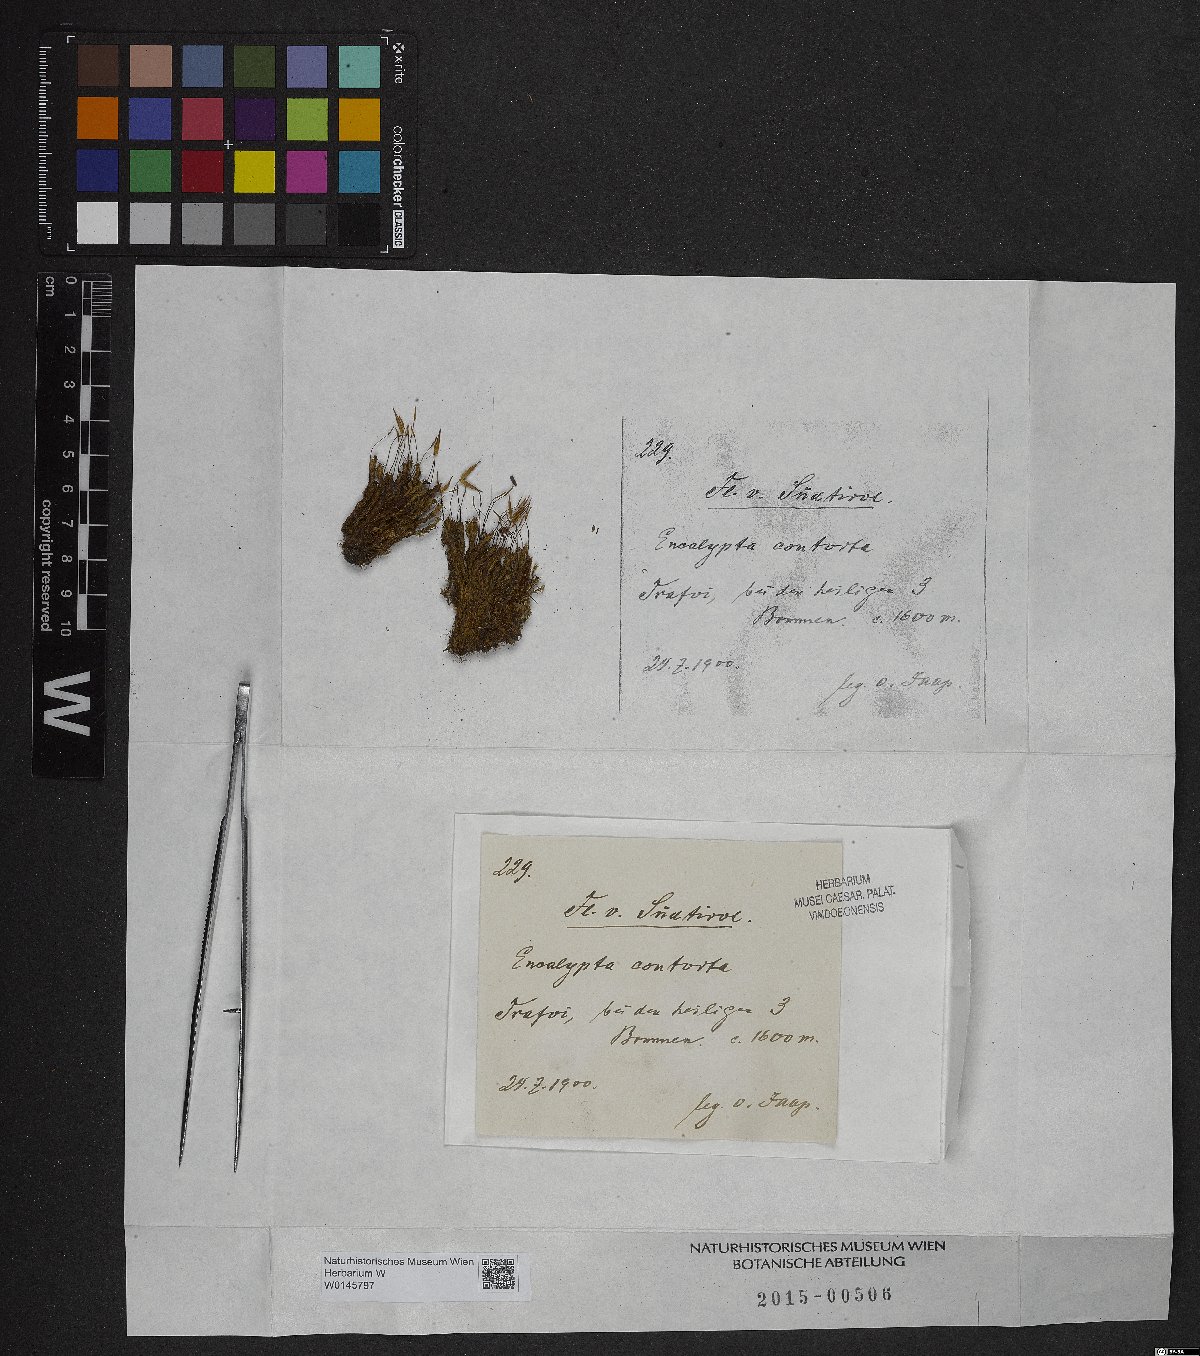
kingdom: Plantae
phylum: Bryophyta
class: Bryopsida
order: Encalyptales
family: Encalyptaceae
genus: Encalypta
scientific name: Encalypta streptocarpa
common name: Spiral extinguisher-moss
